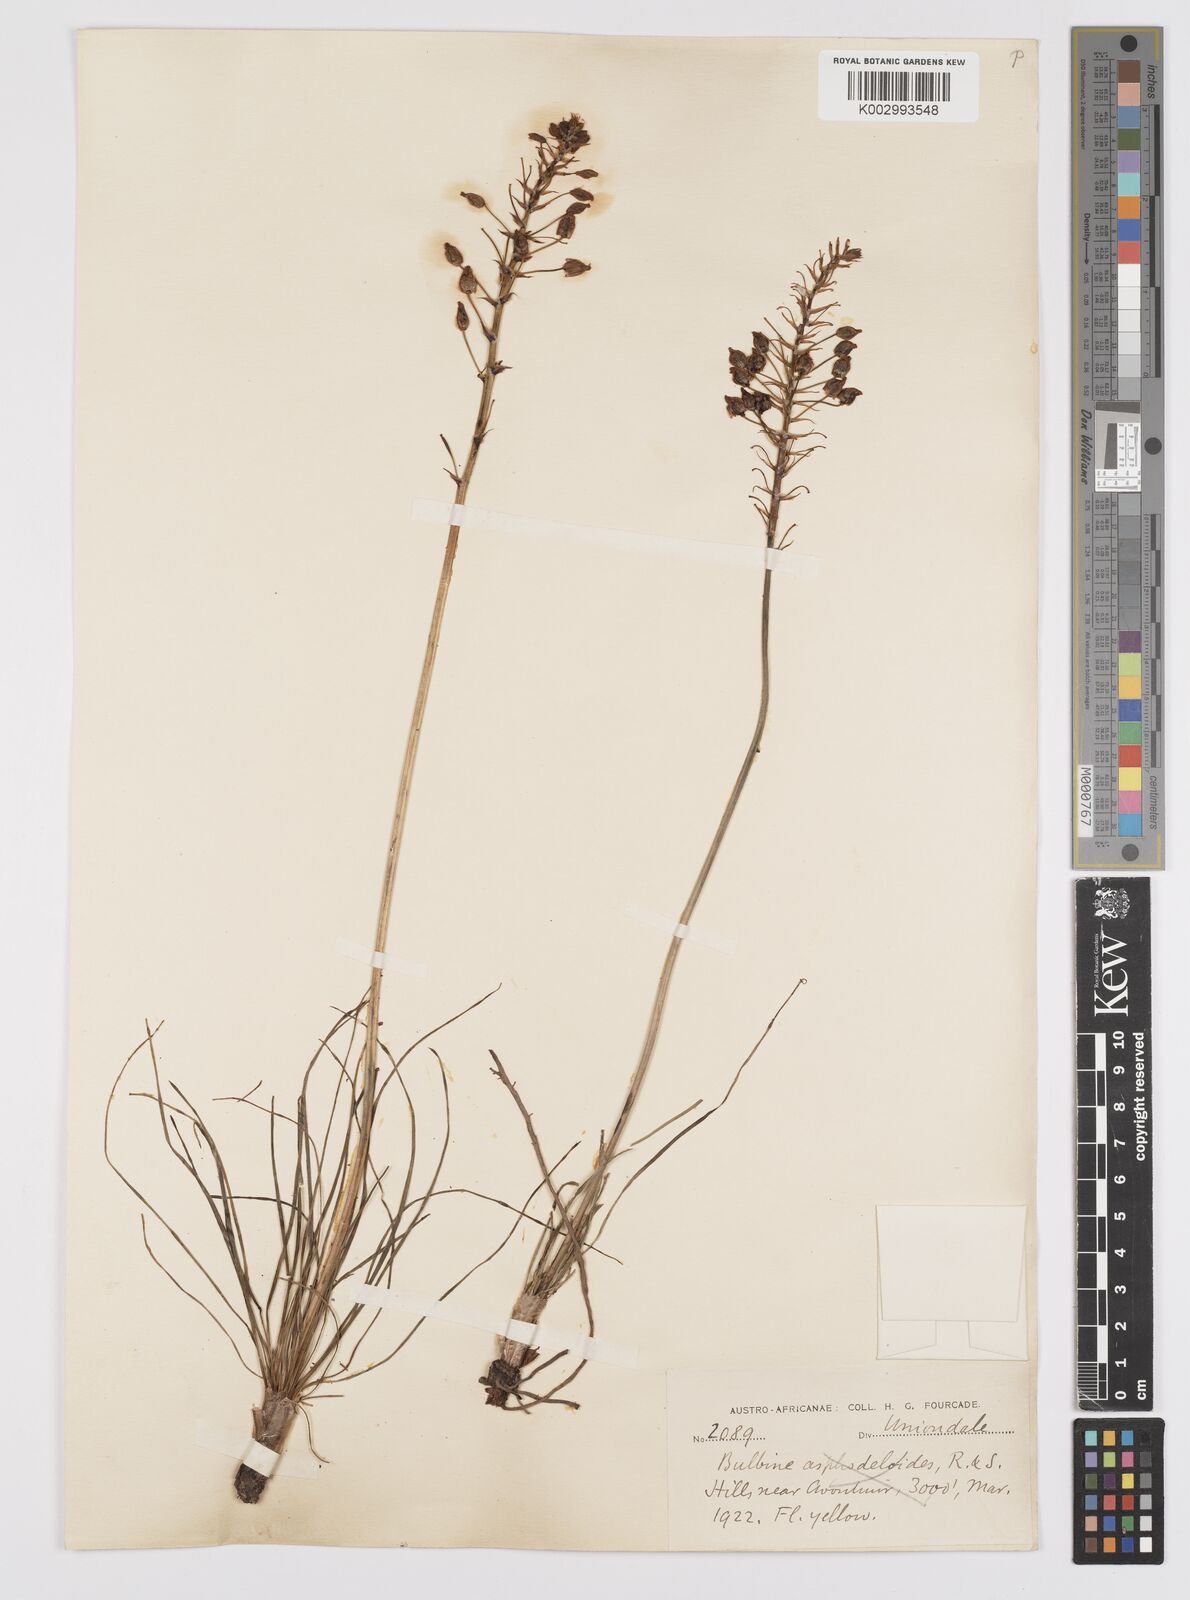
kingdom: Plantae
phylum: Tracheophyta
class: Liliopsida
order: Asparagales
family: Asphodelaceae
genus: Bulbine
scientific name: Bulbine abyssinica
